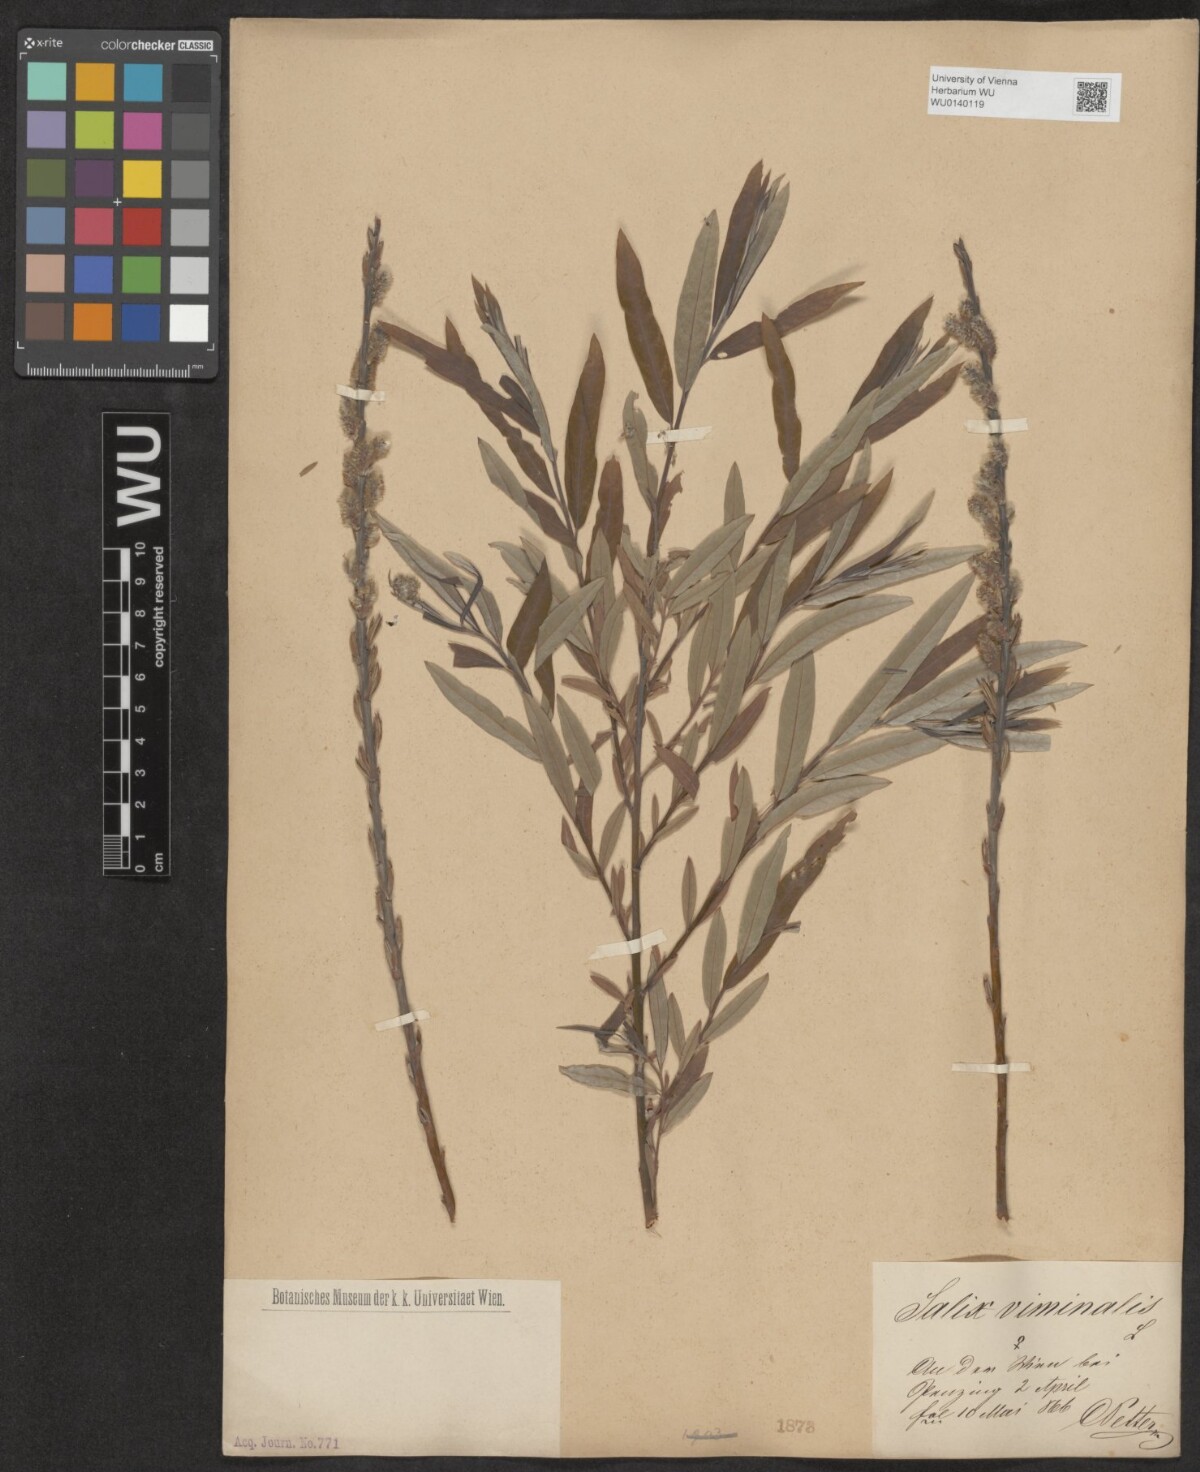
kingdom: Plantae
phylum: Tracheophyta
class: Magnoliopsida
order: Malpighiales
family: Salicaceae
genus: Salix
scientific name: Salix viminalis
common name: Osier
